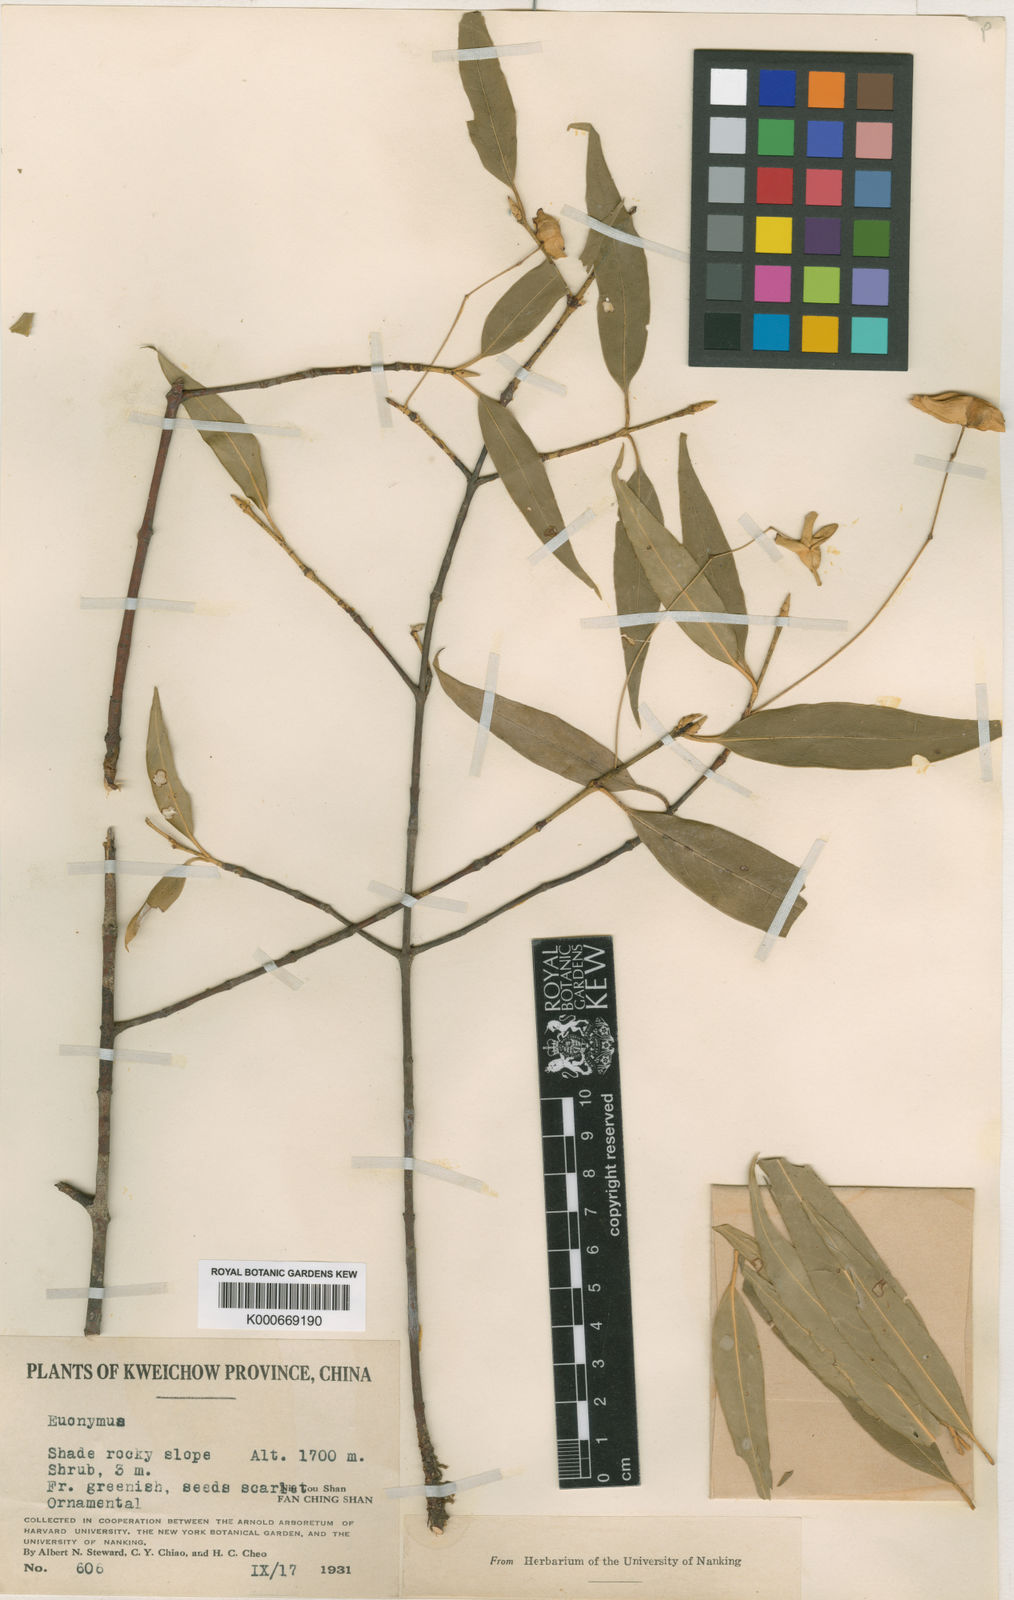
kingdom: Plantae
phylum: Tracheophyta
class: Magnoliopsida
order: Celastrales
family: Celastraceae
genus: Euonymus
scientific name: Euonymus kweichowensis
